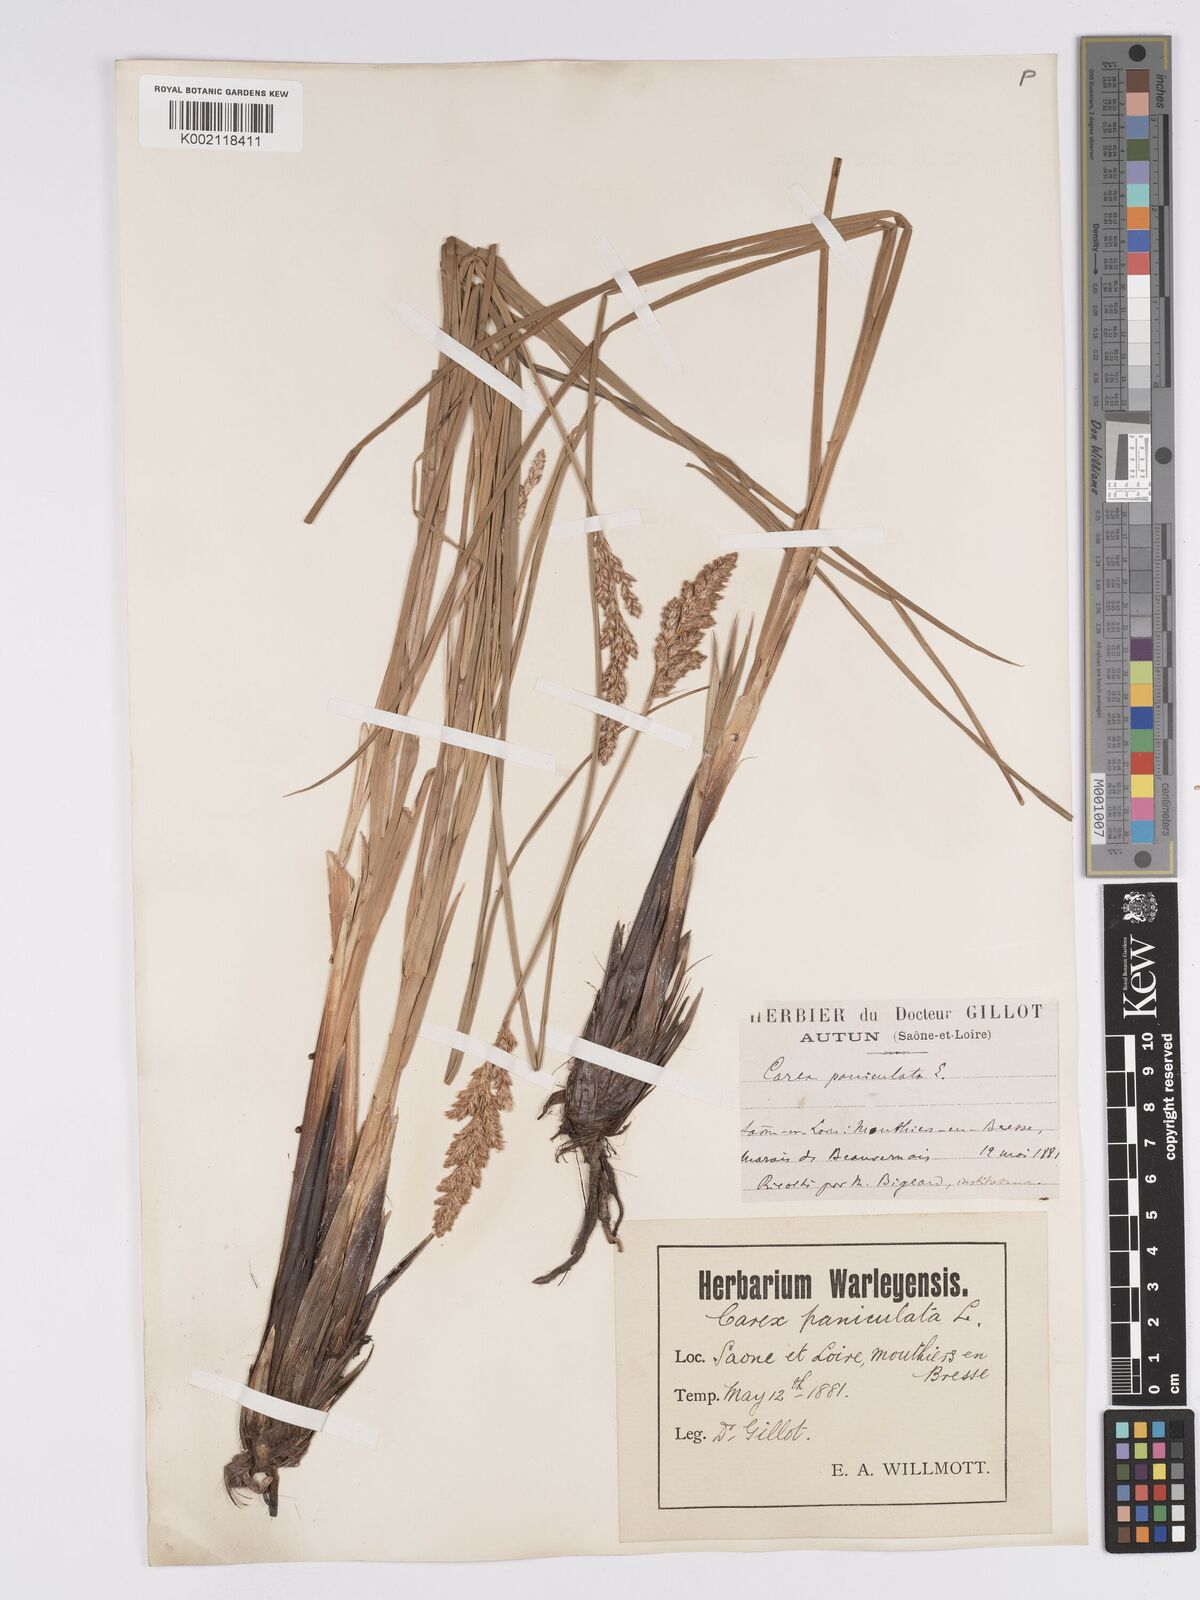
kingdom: Plantae
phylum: Tracheophyta
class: Liliopsida
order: Poales
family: Cyperaceae
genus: Carex
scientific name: Carex paniculata
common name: Greater tussock-sedge
